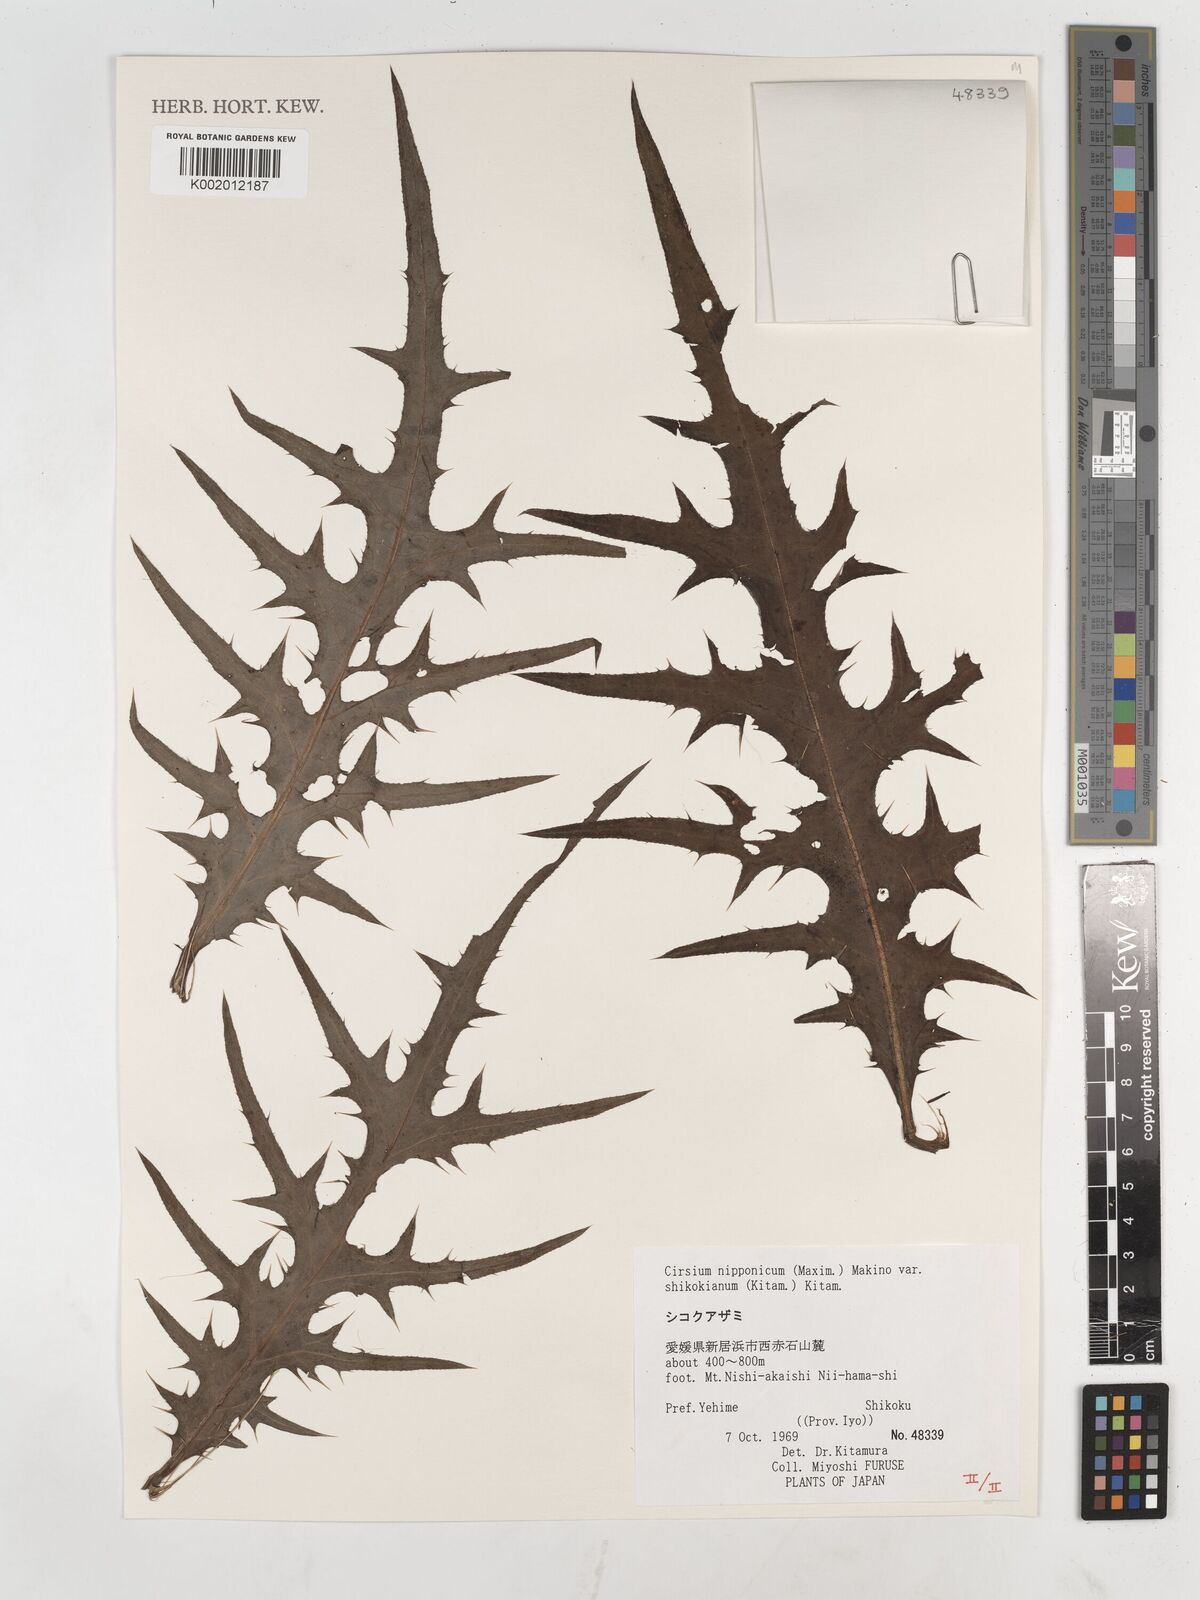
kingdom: Plantae
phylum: Tracheophyta
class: Magnoliopsida
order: Asterales
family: Asteraceae
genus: Cirsium
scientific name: Cirsium nipponicum
